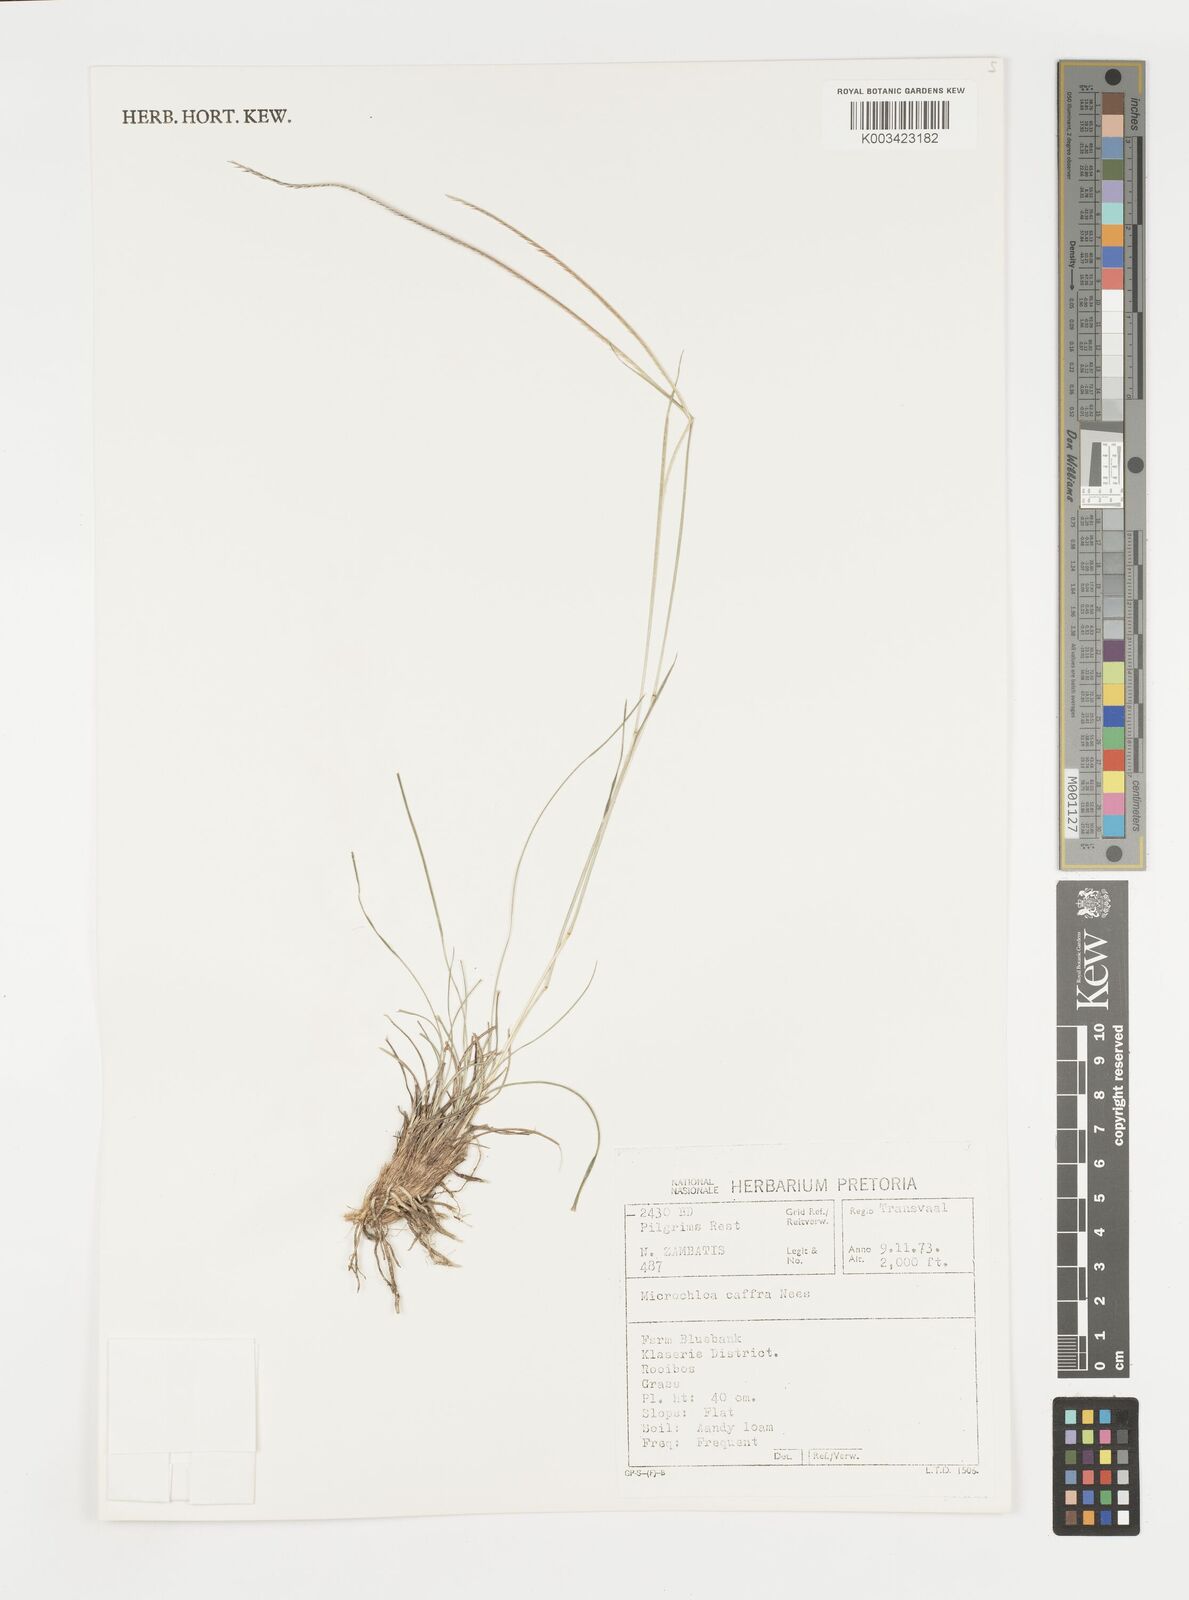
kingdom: Plantae
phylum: Tracheophyta
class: Liliopsida
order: Poales
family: Poaceae
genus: Microchloa
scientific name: Microchloa caffra
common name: Pincushion grass
